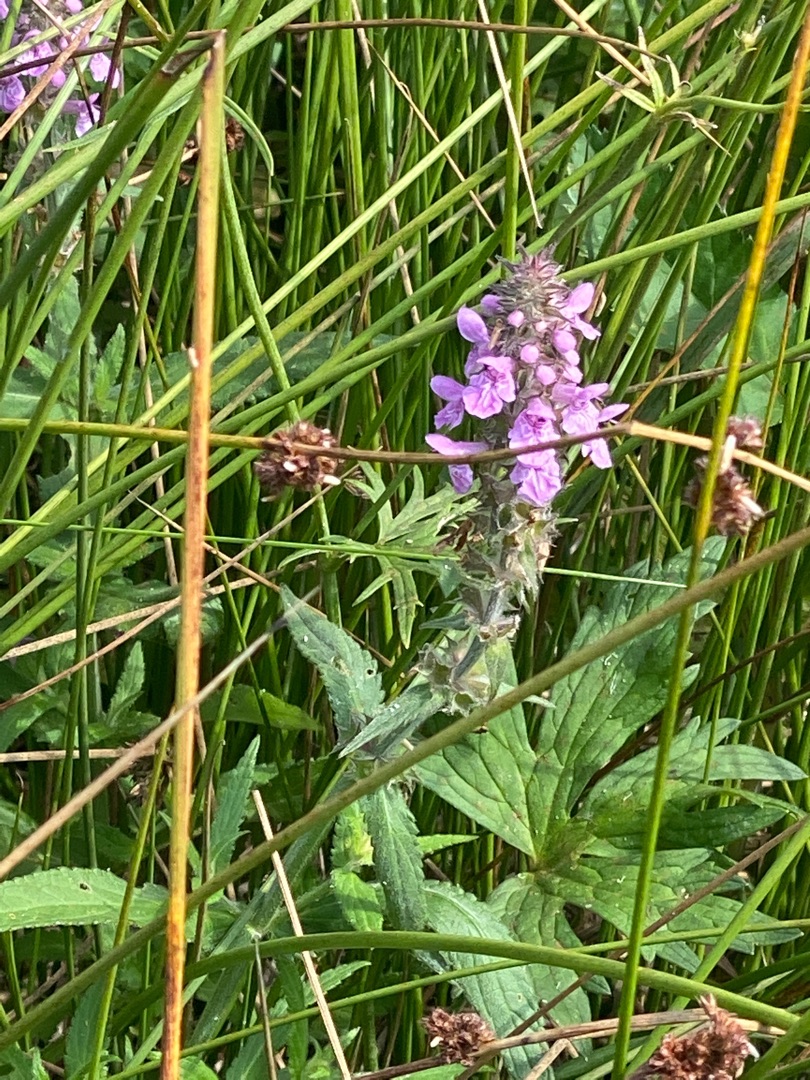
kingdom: Plantae
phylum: Tracheophyta
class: Magnoliopsida
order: Lamiales
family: Lamiaceae
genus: Stachys
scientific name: Stachys palustris
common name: Kær-galtetand
